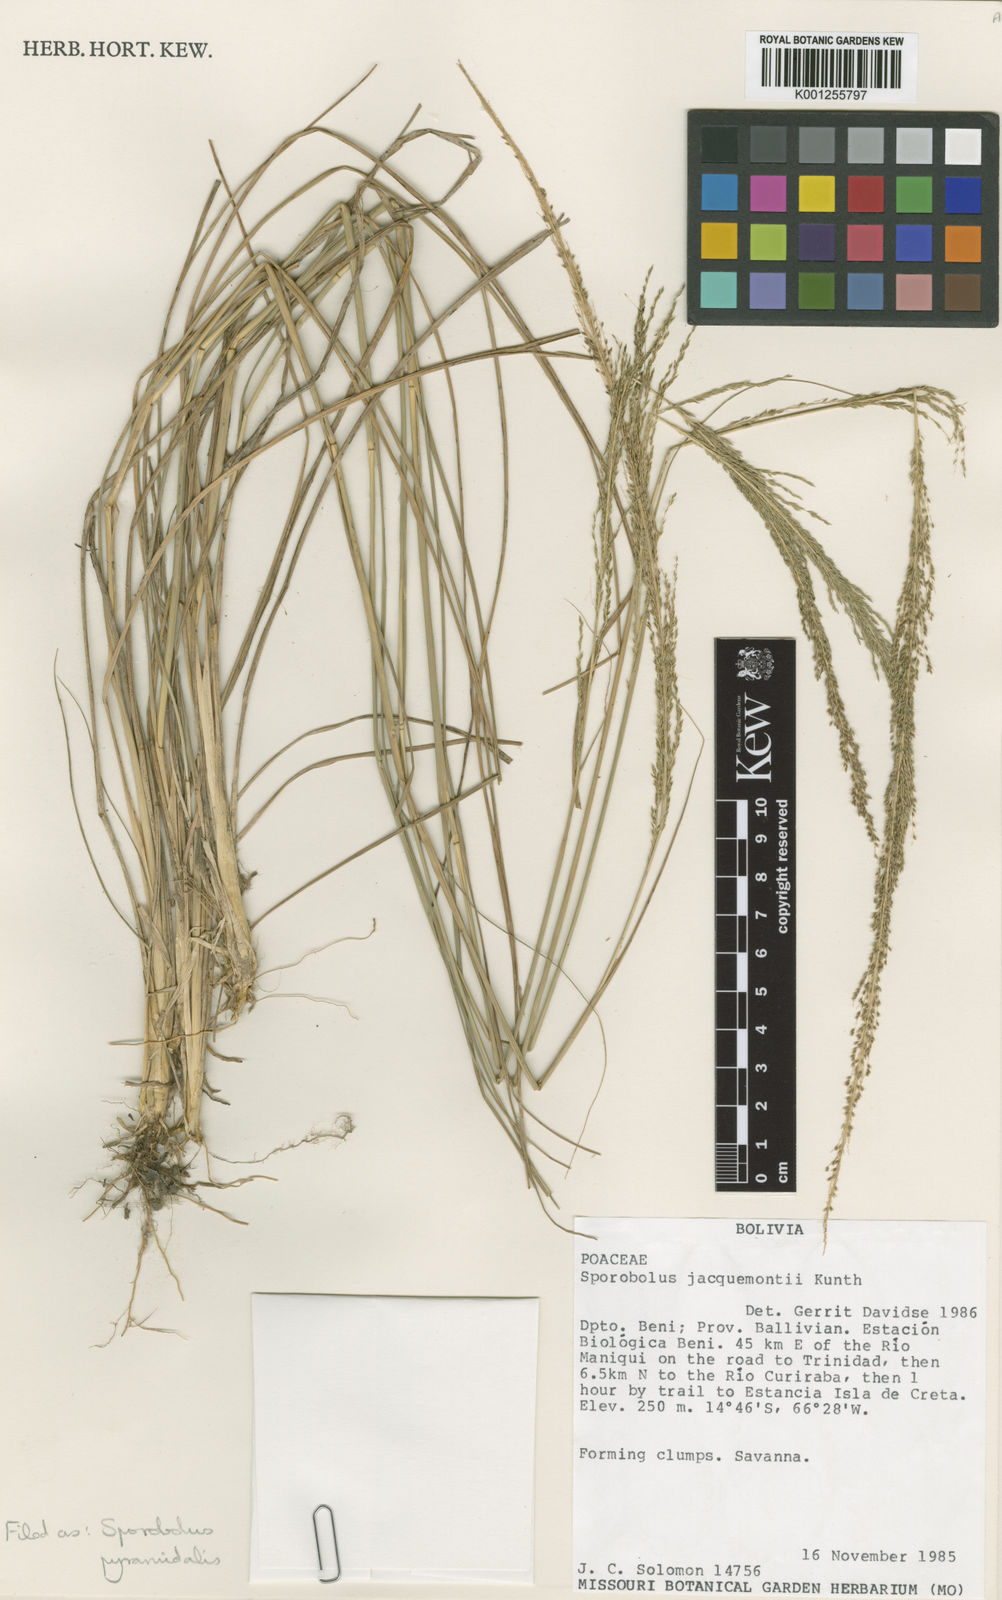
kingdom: Plantae
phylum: Tracheophyta
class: Liliopsida
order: Poales
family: Poaceae
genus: Sporobolus
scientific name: Sporobolus pyramidalis
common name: West indian dropseed
